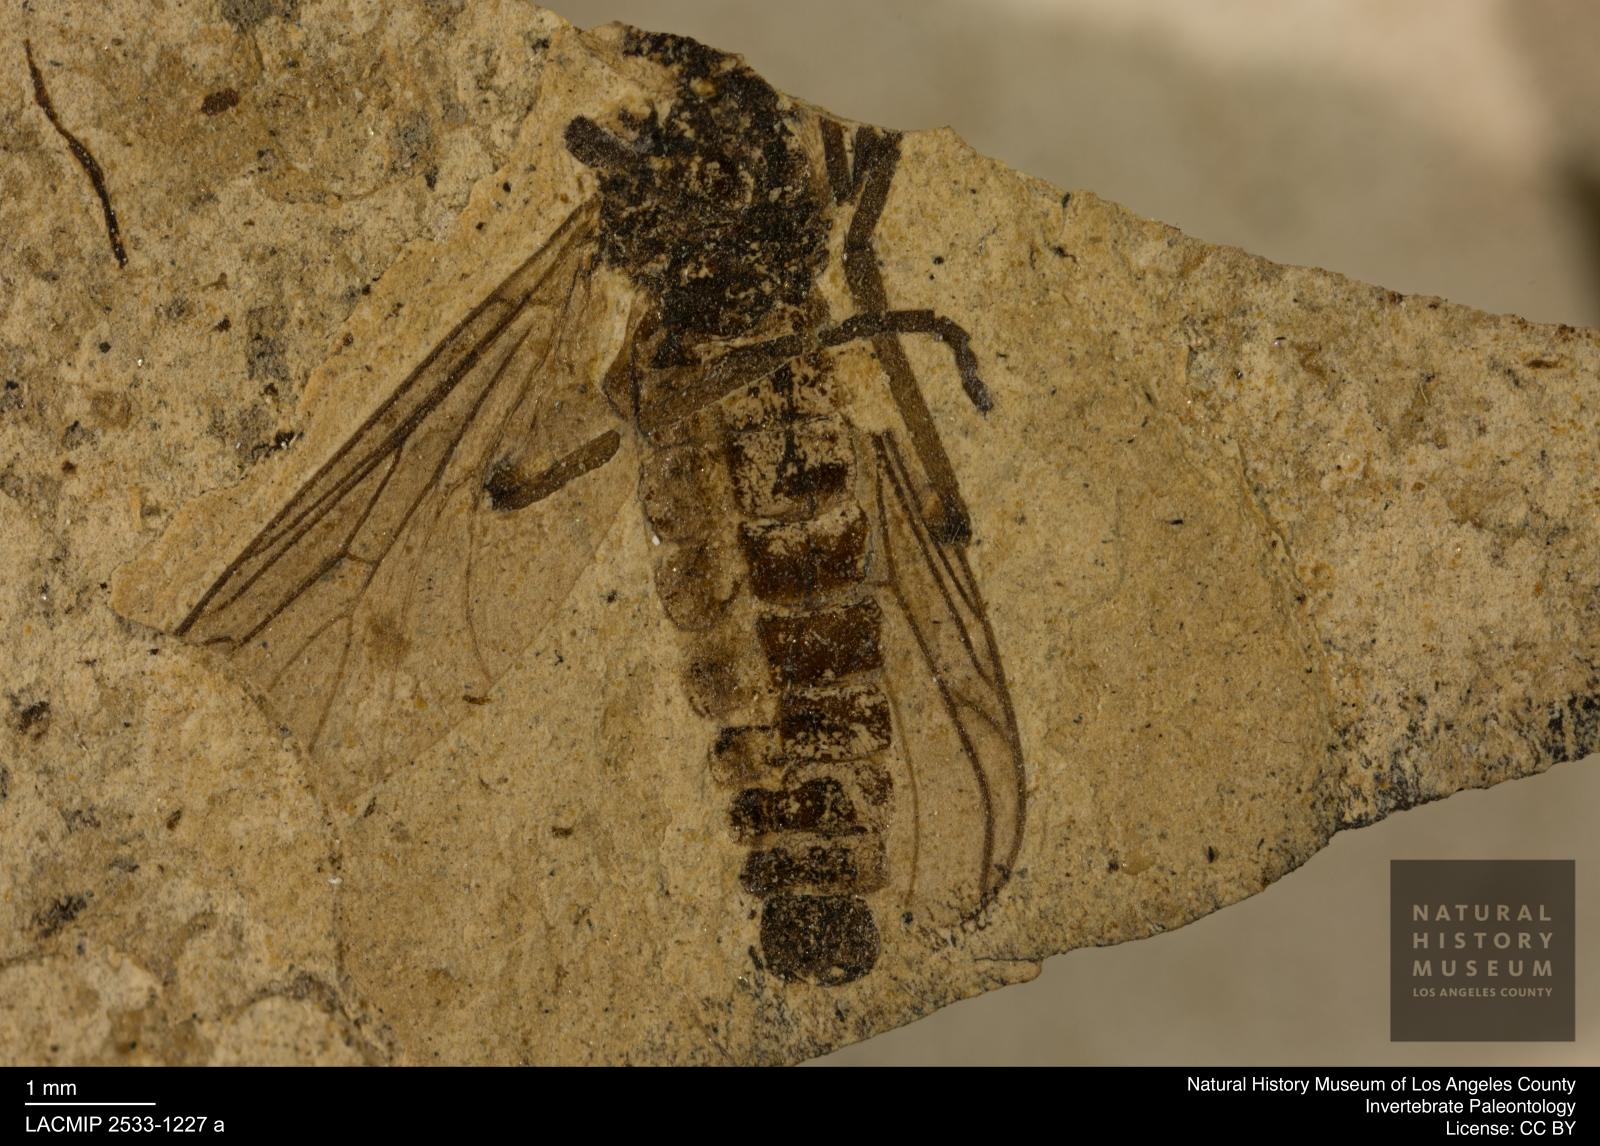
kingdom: Animalia
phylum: Arthropoda
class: Insecta
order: Diptera
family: Bibionidae
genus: Plecia
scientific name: Plecia
